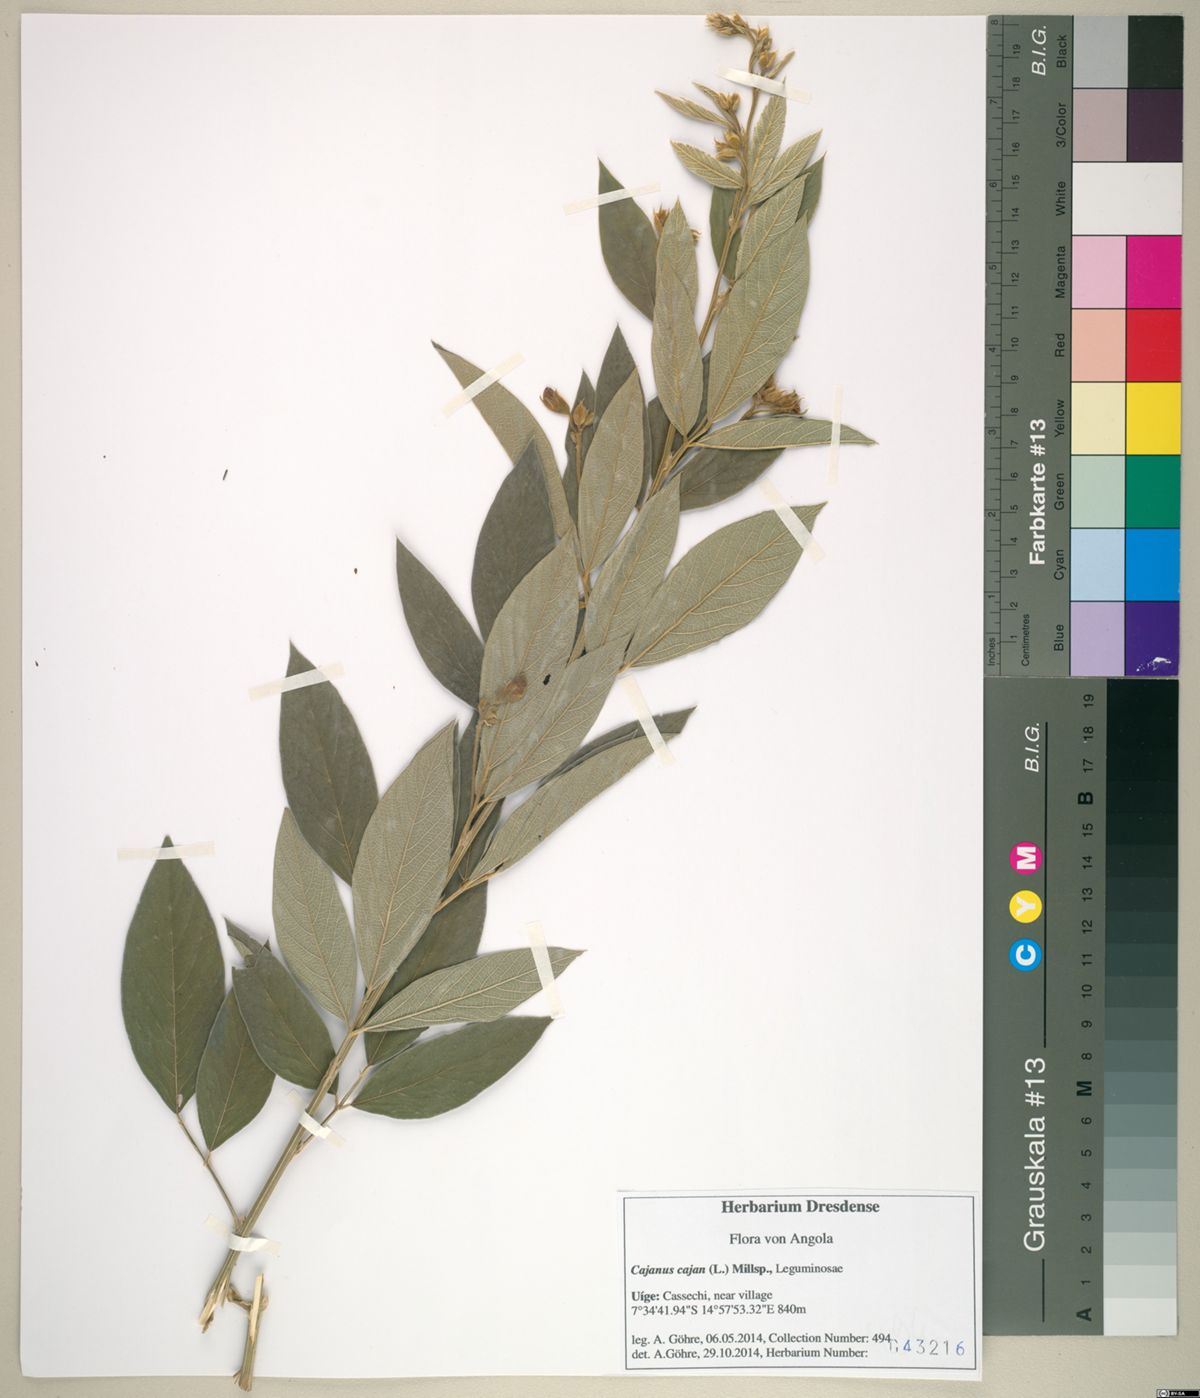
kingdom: Plantae
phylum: Tracheophyta
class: Magnoliopsida
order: Fabales
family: Fabaceae
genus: Cajanus
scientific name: Cajanus cajan
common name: Pigeonpea
